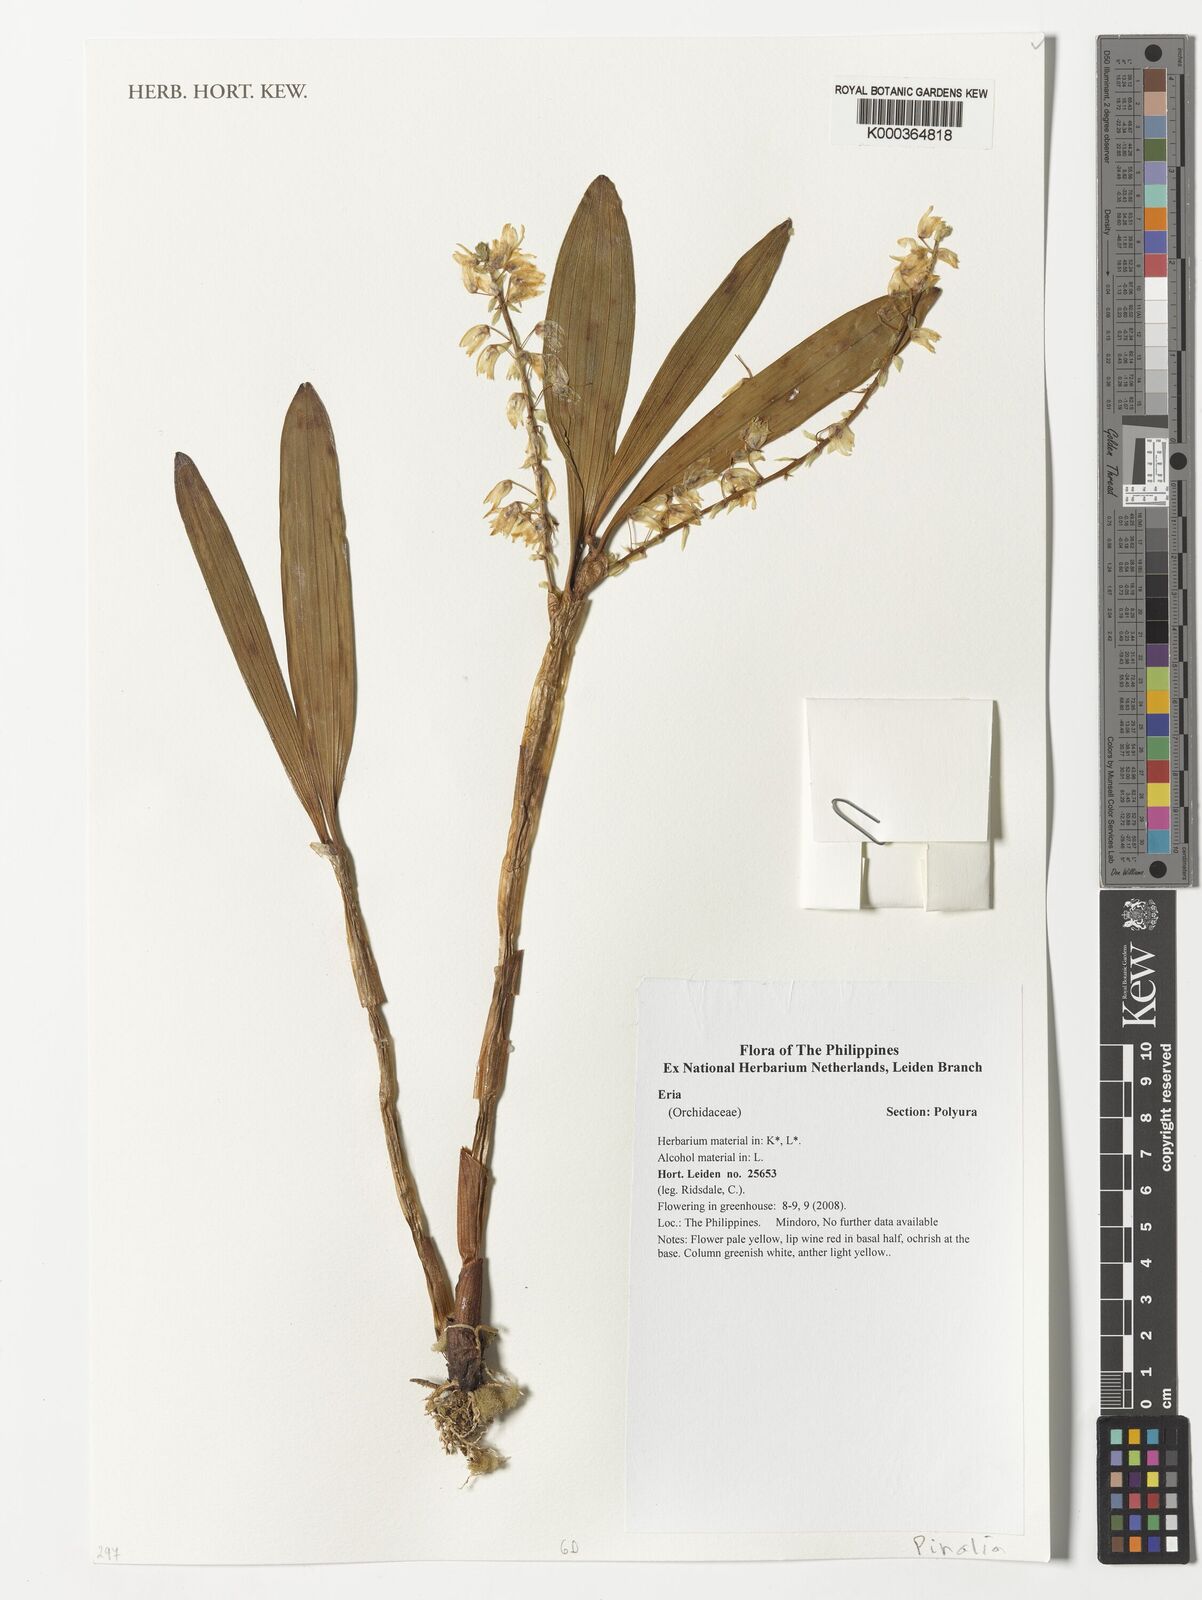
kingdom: Plantae
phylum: Tracheophyta
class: Liliopsida
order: Asparagales
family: Orchidaceae
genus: Eria
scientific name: Eria
